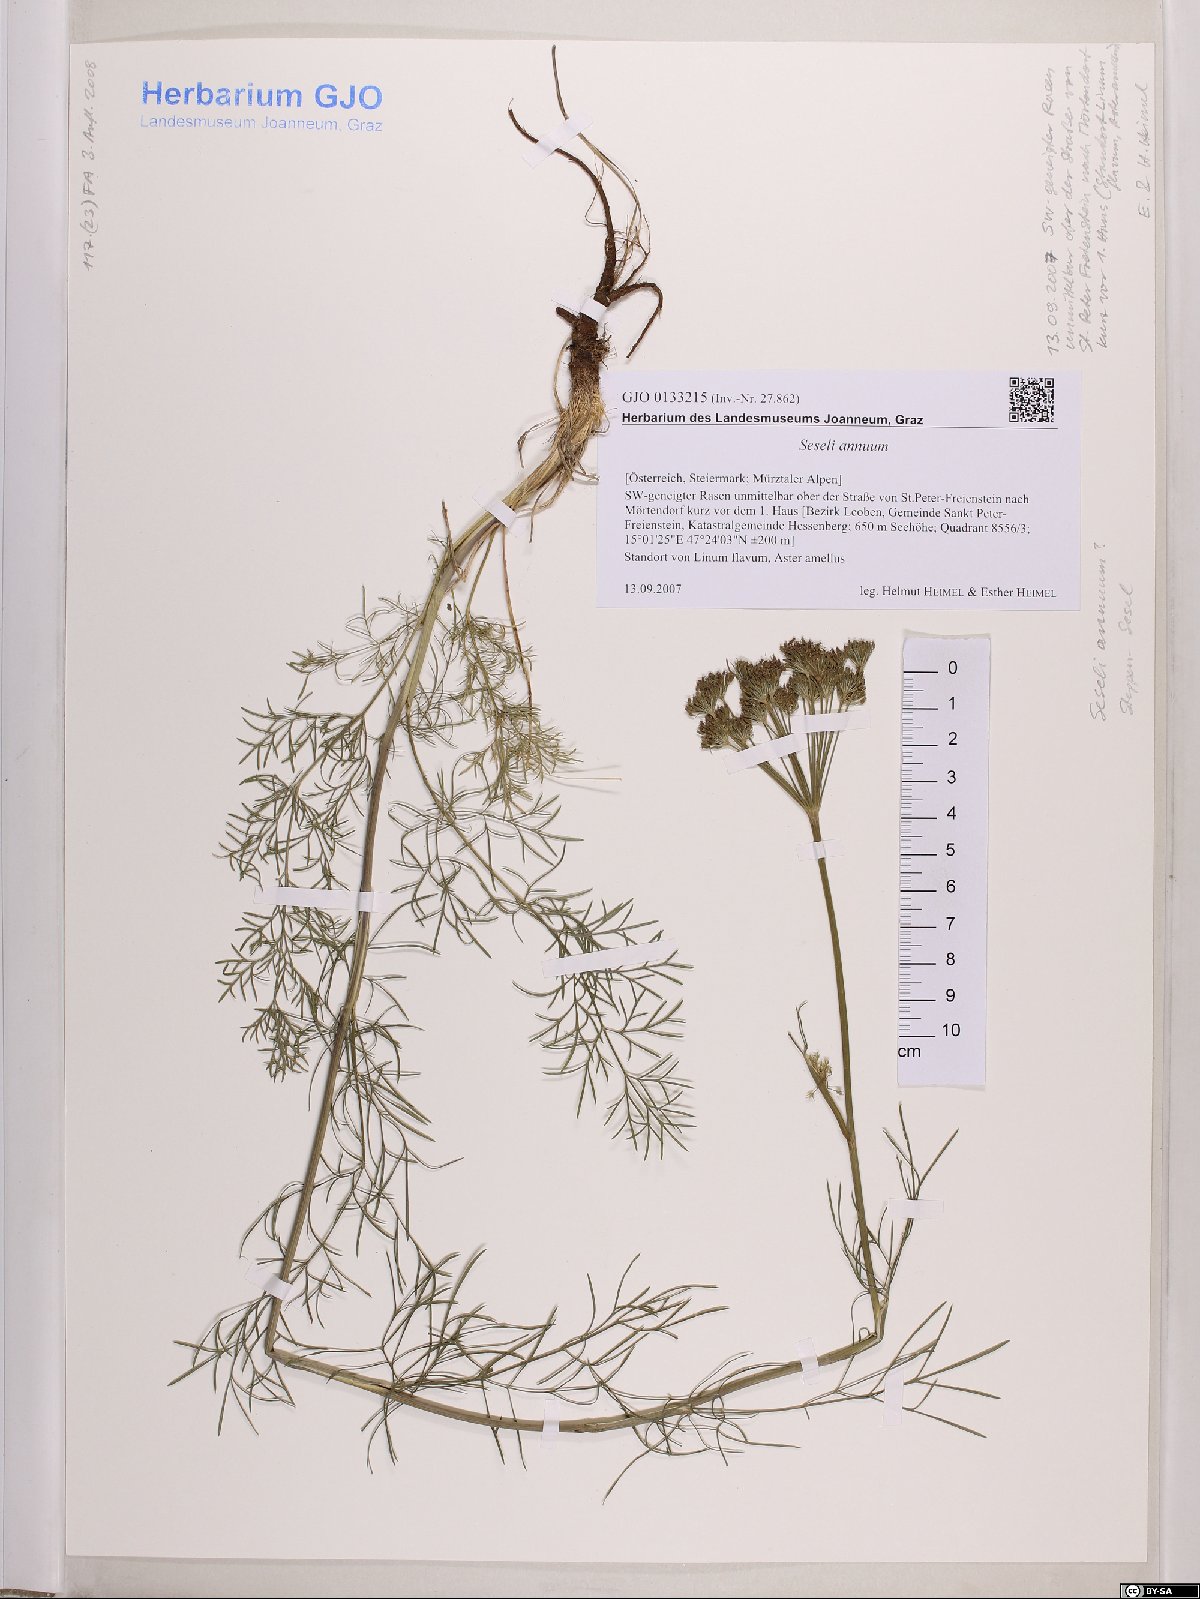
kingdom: Plantae
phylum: Tracheophyta
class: Magnoliopsida
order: Apiales
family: Apiaceae
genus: Seseli
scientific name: Seseli annuum
